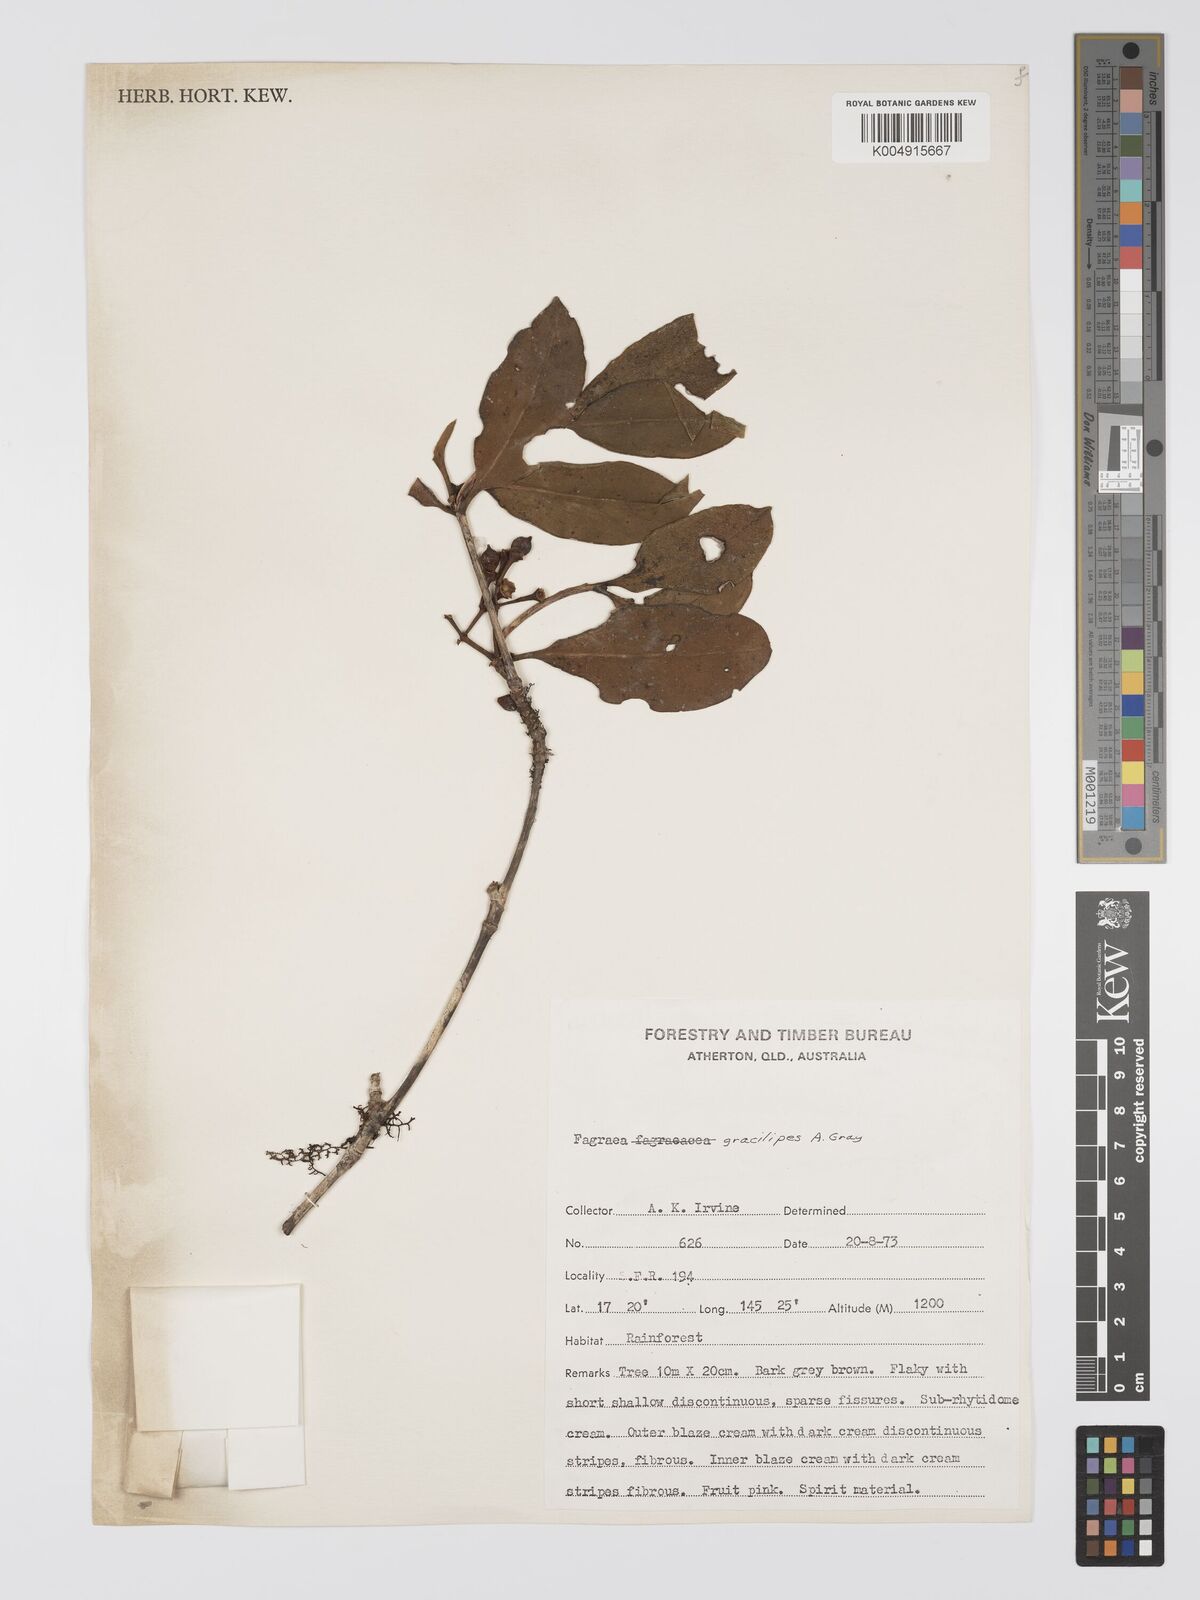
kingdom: Plantae
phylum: Tracheophyta
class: Magnoliopsida
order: Gentianales
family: Gentianaceae
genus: Fagraea
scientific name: Fagraea gracilipes
